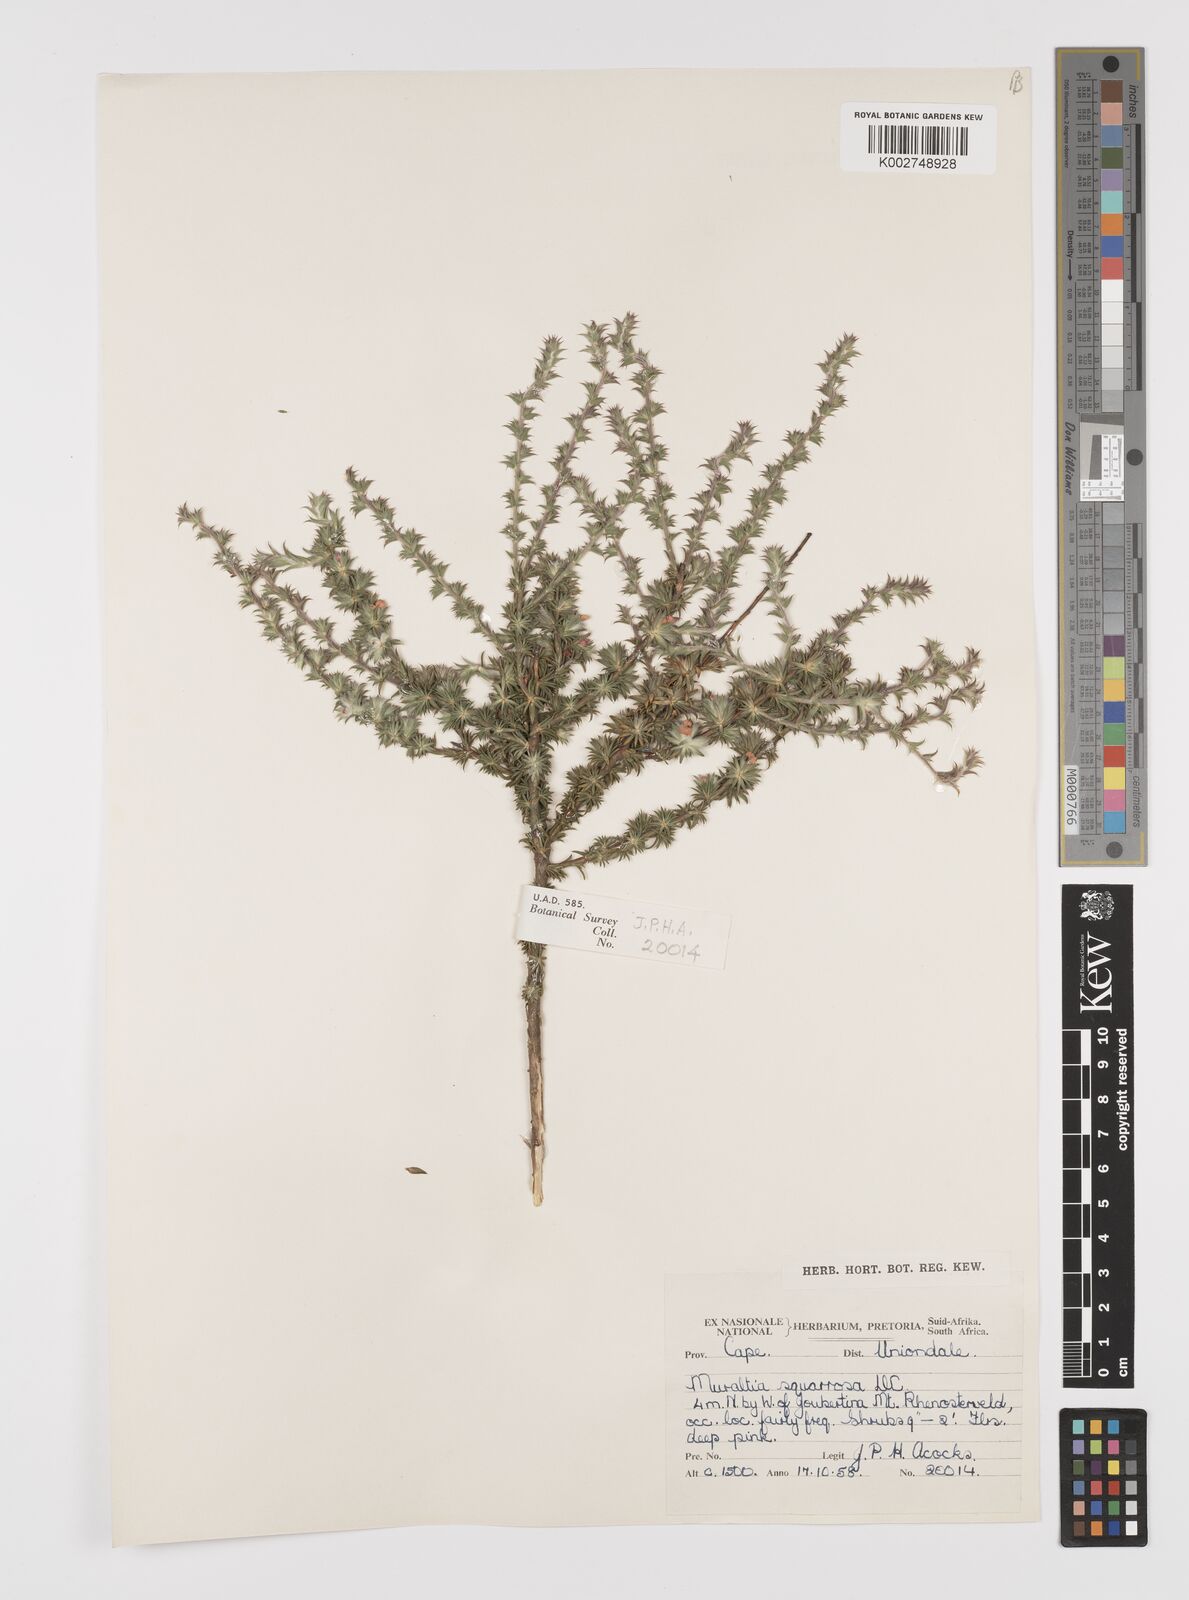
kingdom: Plantae
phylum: Tracheophyta
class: Magnoliopsida
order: Fabales
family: Polygalaceae
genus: Muraltia
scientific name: Muraltia squarrosa
